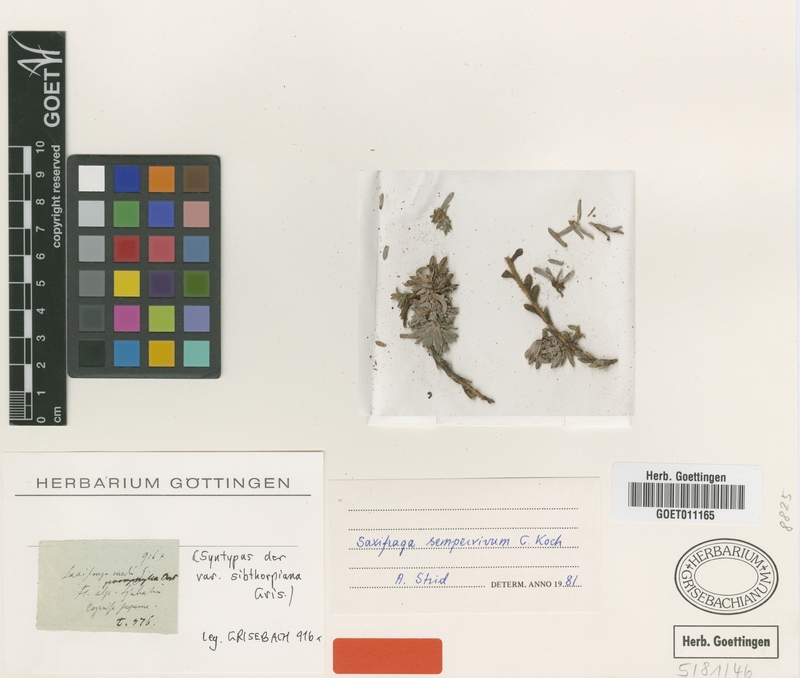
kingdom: Plantae
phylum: Tracheophyta
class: Magnoliopsida
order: Saxifragales
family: Saxifragaceae
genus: Saxifraga
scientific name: Saxifraga sempervivum
